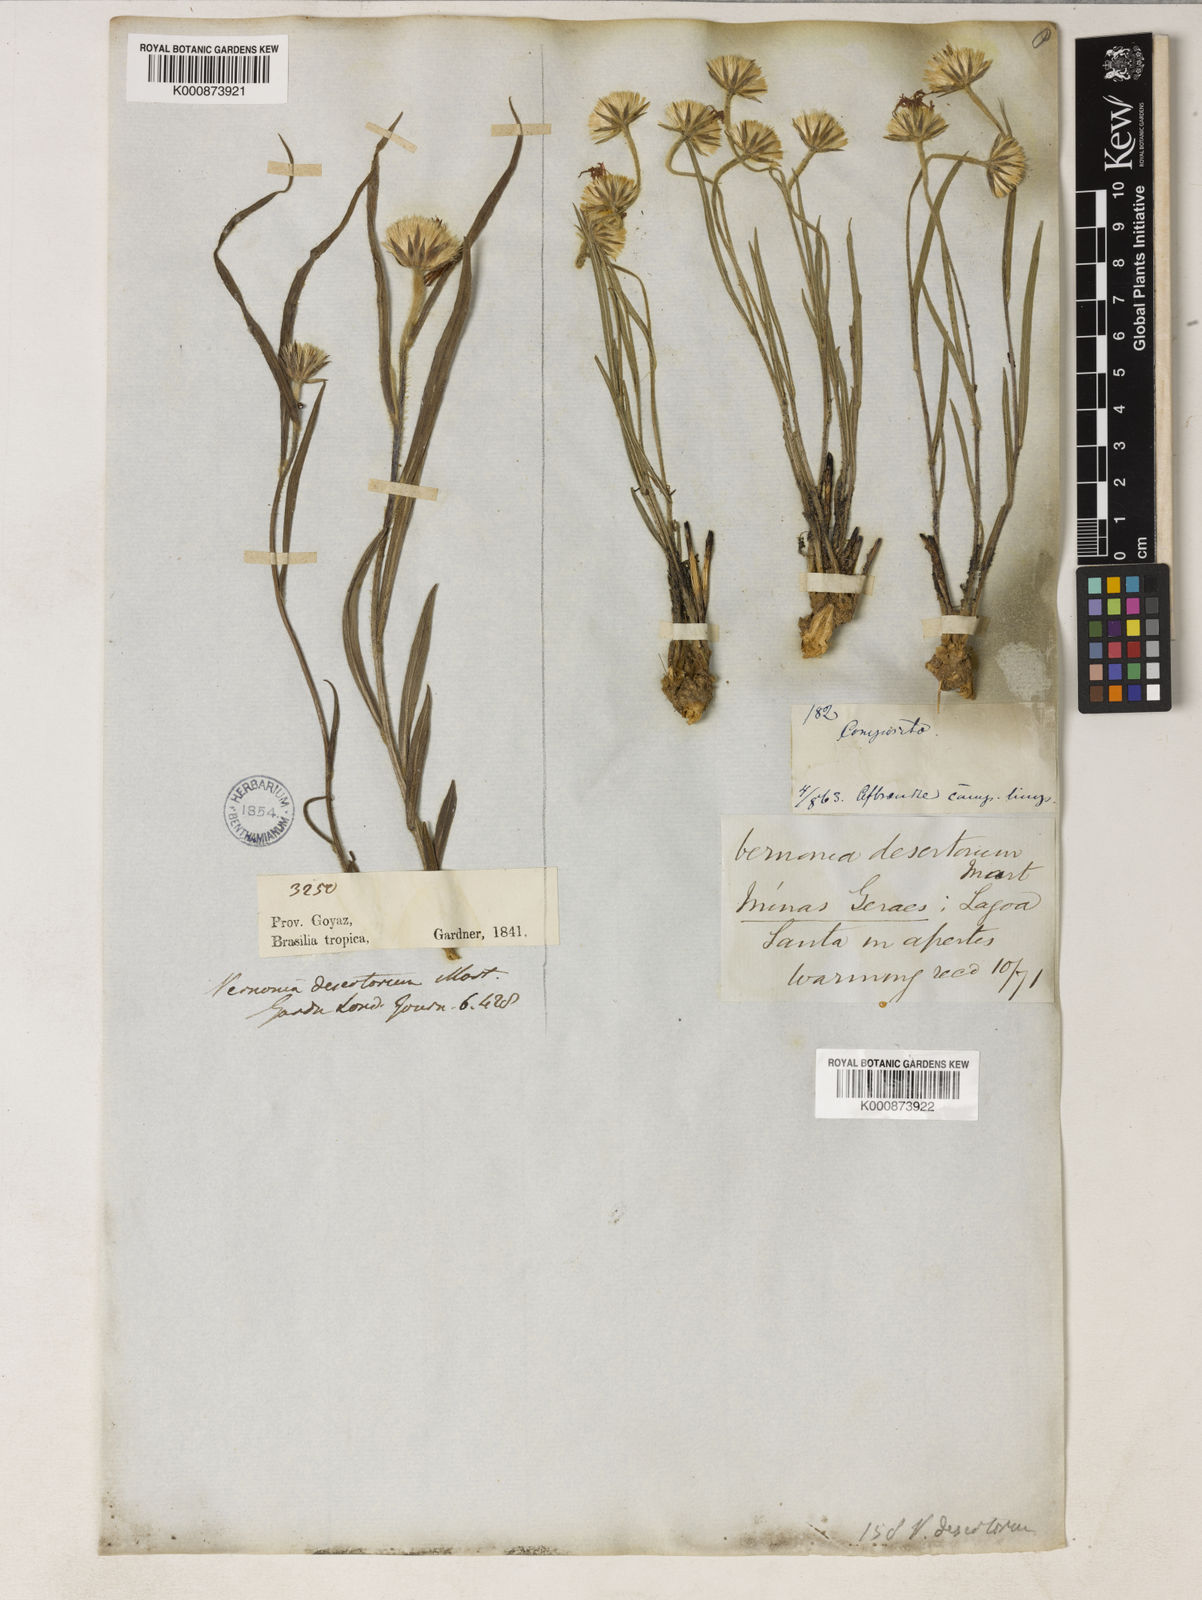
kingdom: Plantae
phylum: Tracheophyta
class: Magnoliopsida
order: Asterales
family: Asteraceae
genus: Chrysolaena
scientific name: Chrysolaena desertorum
